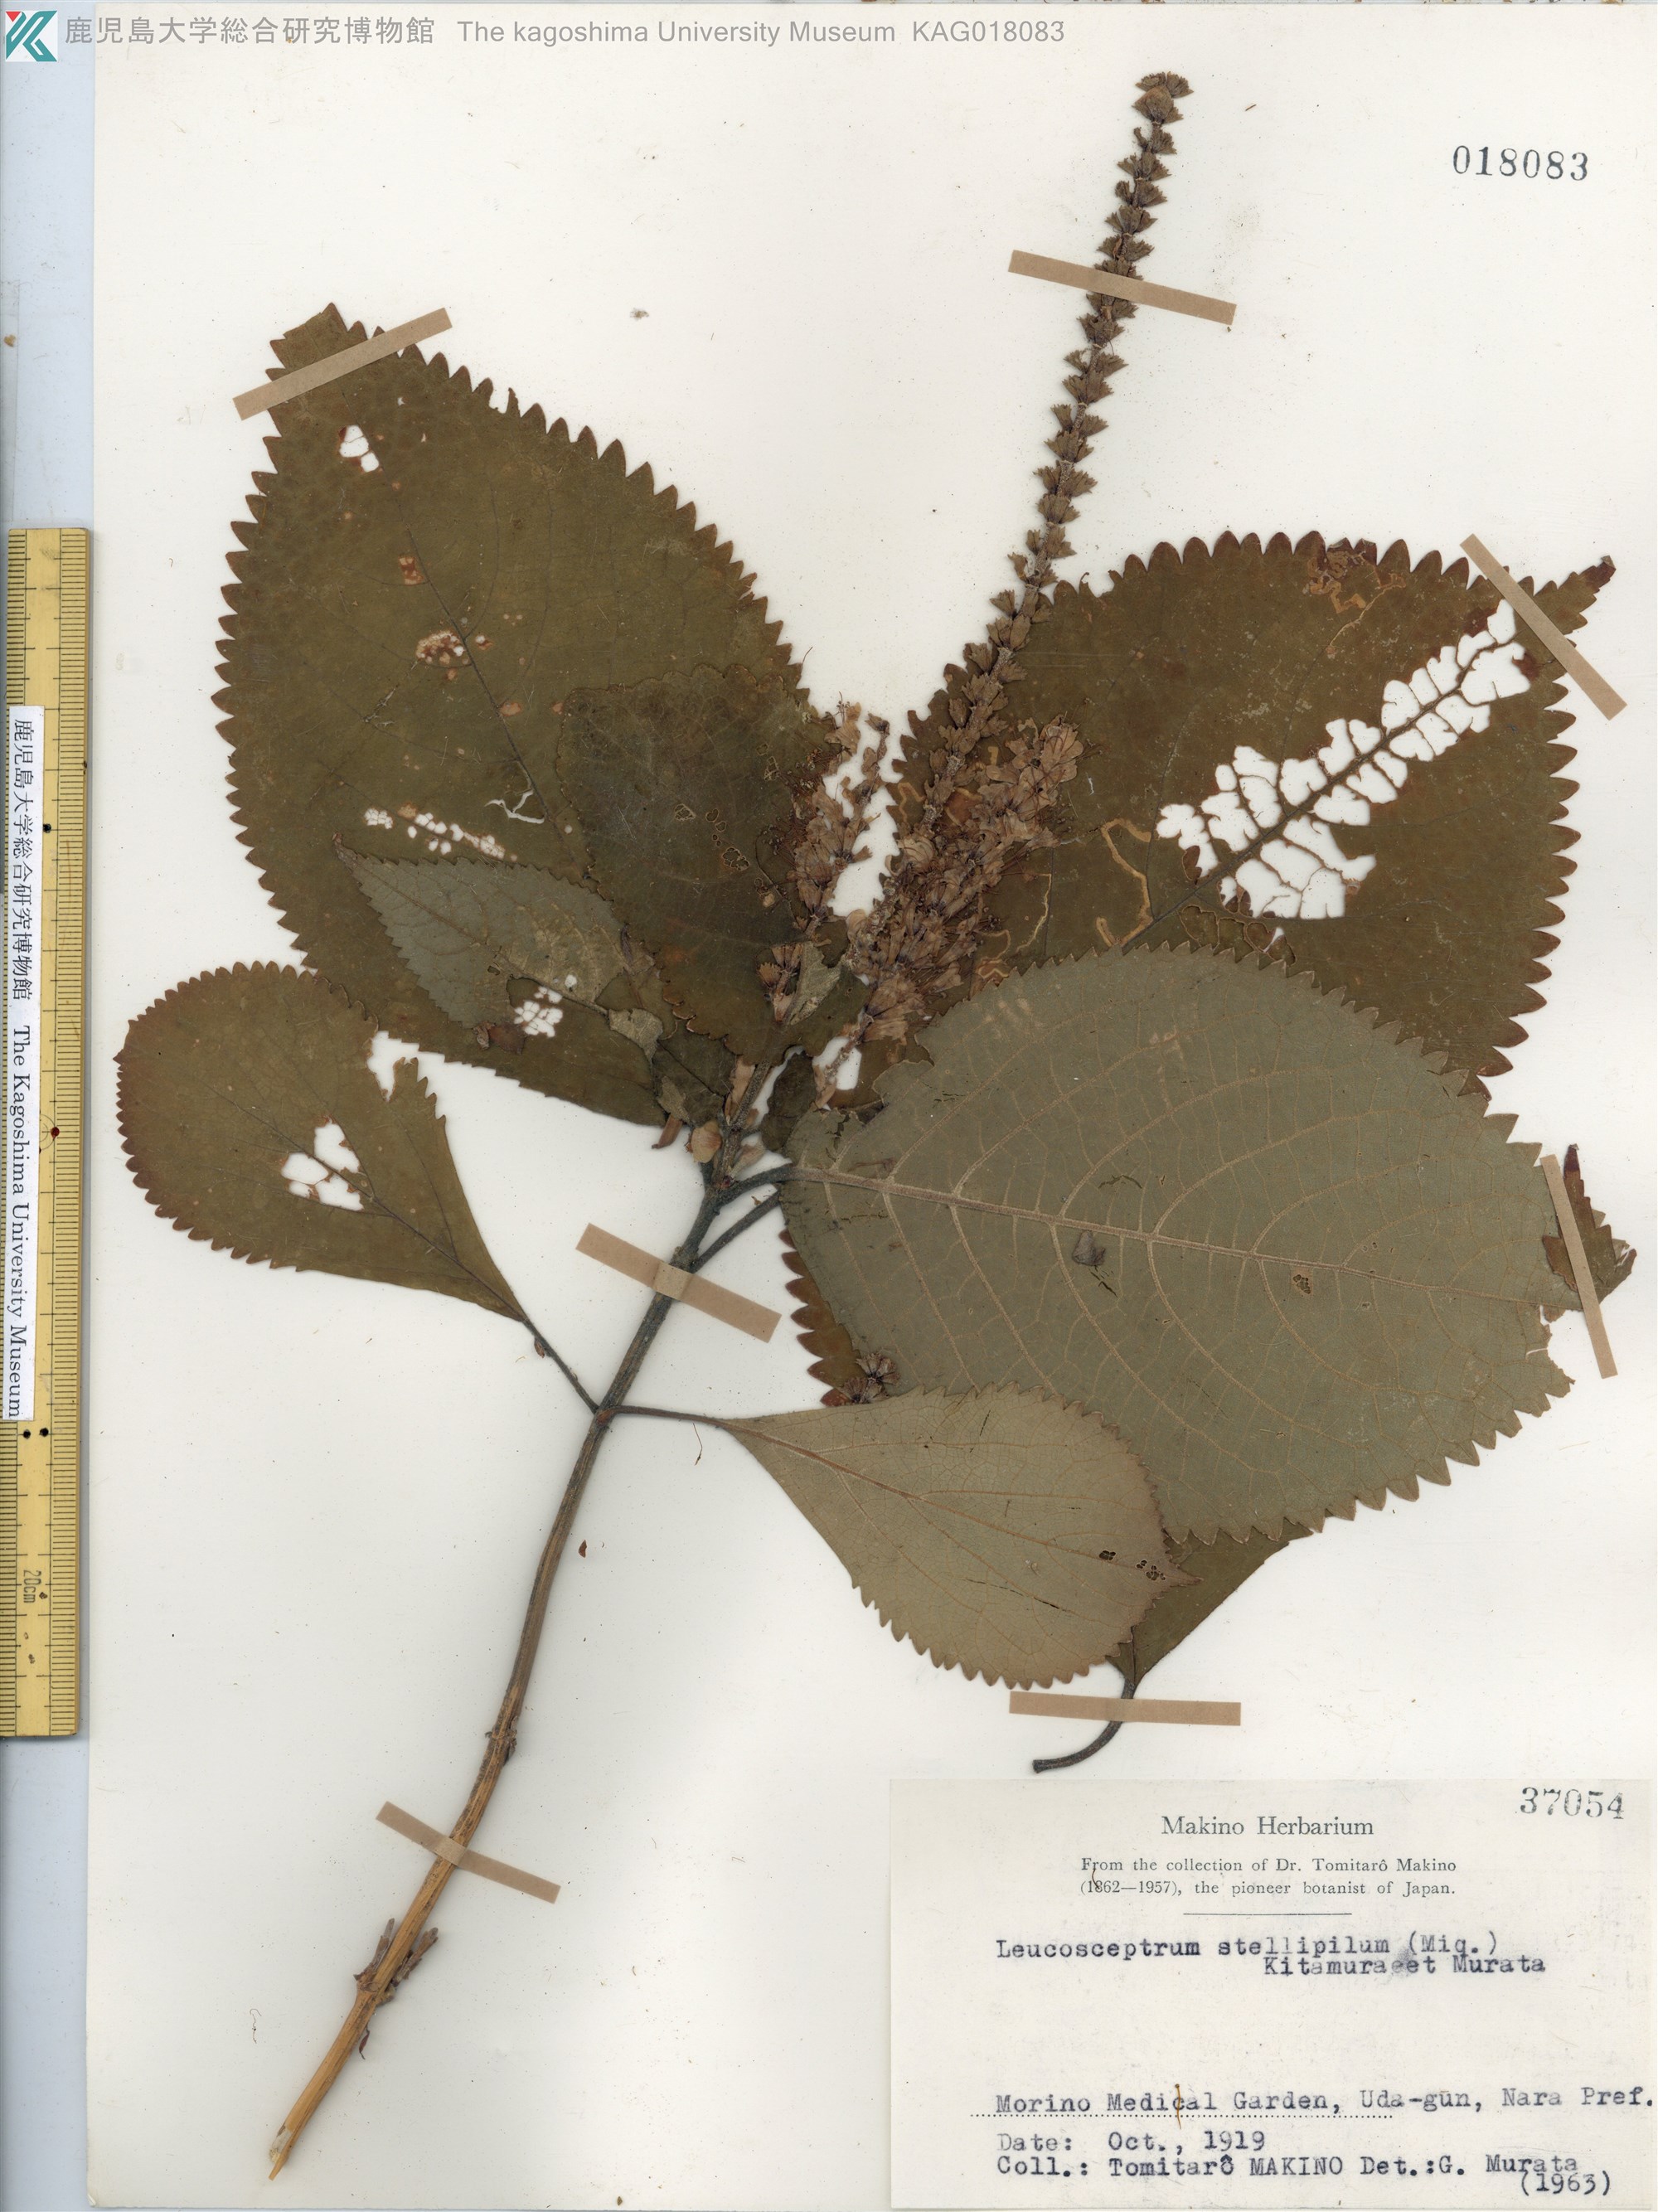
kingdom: Plantae
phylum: Tracheophyta
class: Magnoliopsida
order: Lamiales
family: Lamiaceae
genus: Comanthosphace
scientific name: Comanthosphace stellipila
